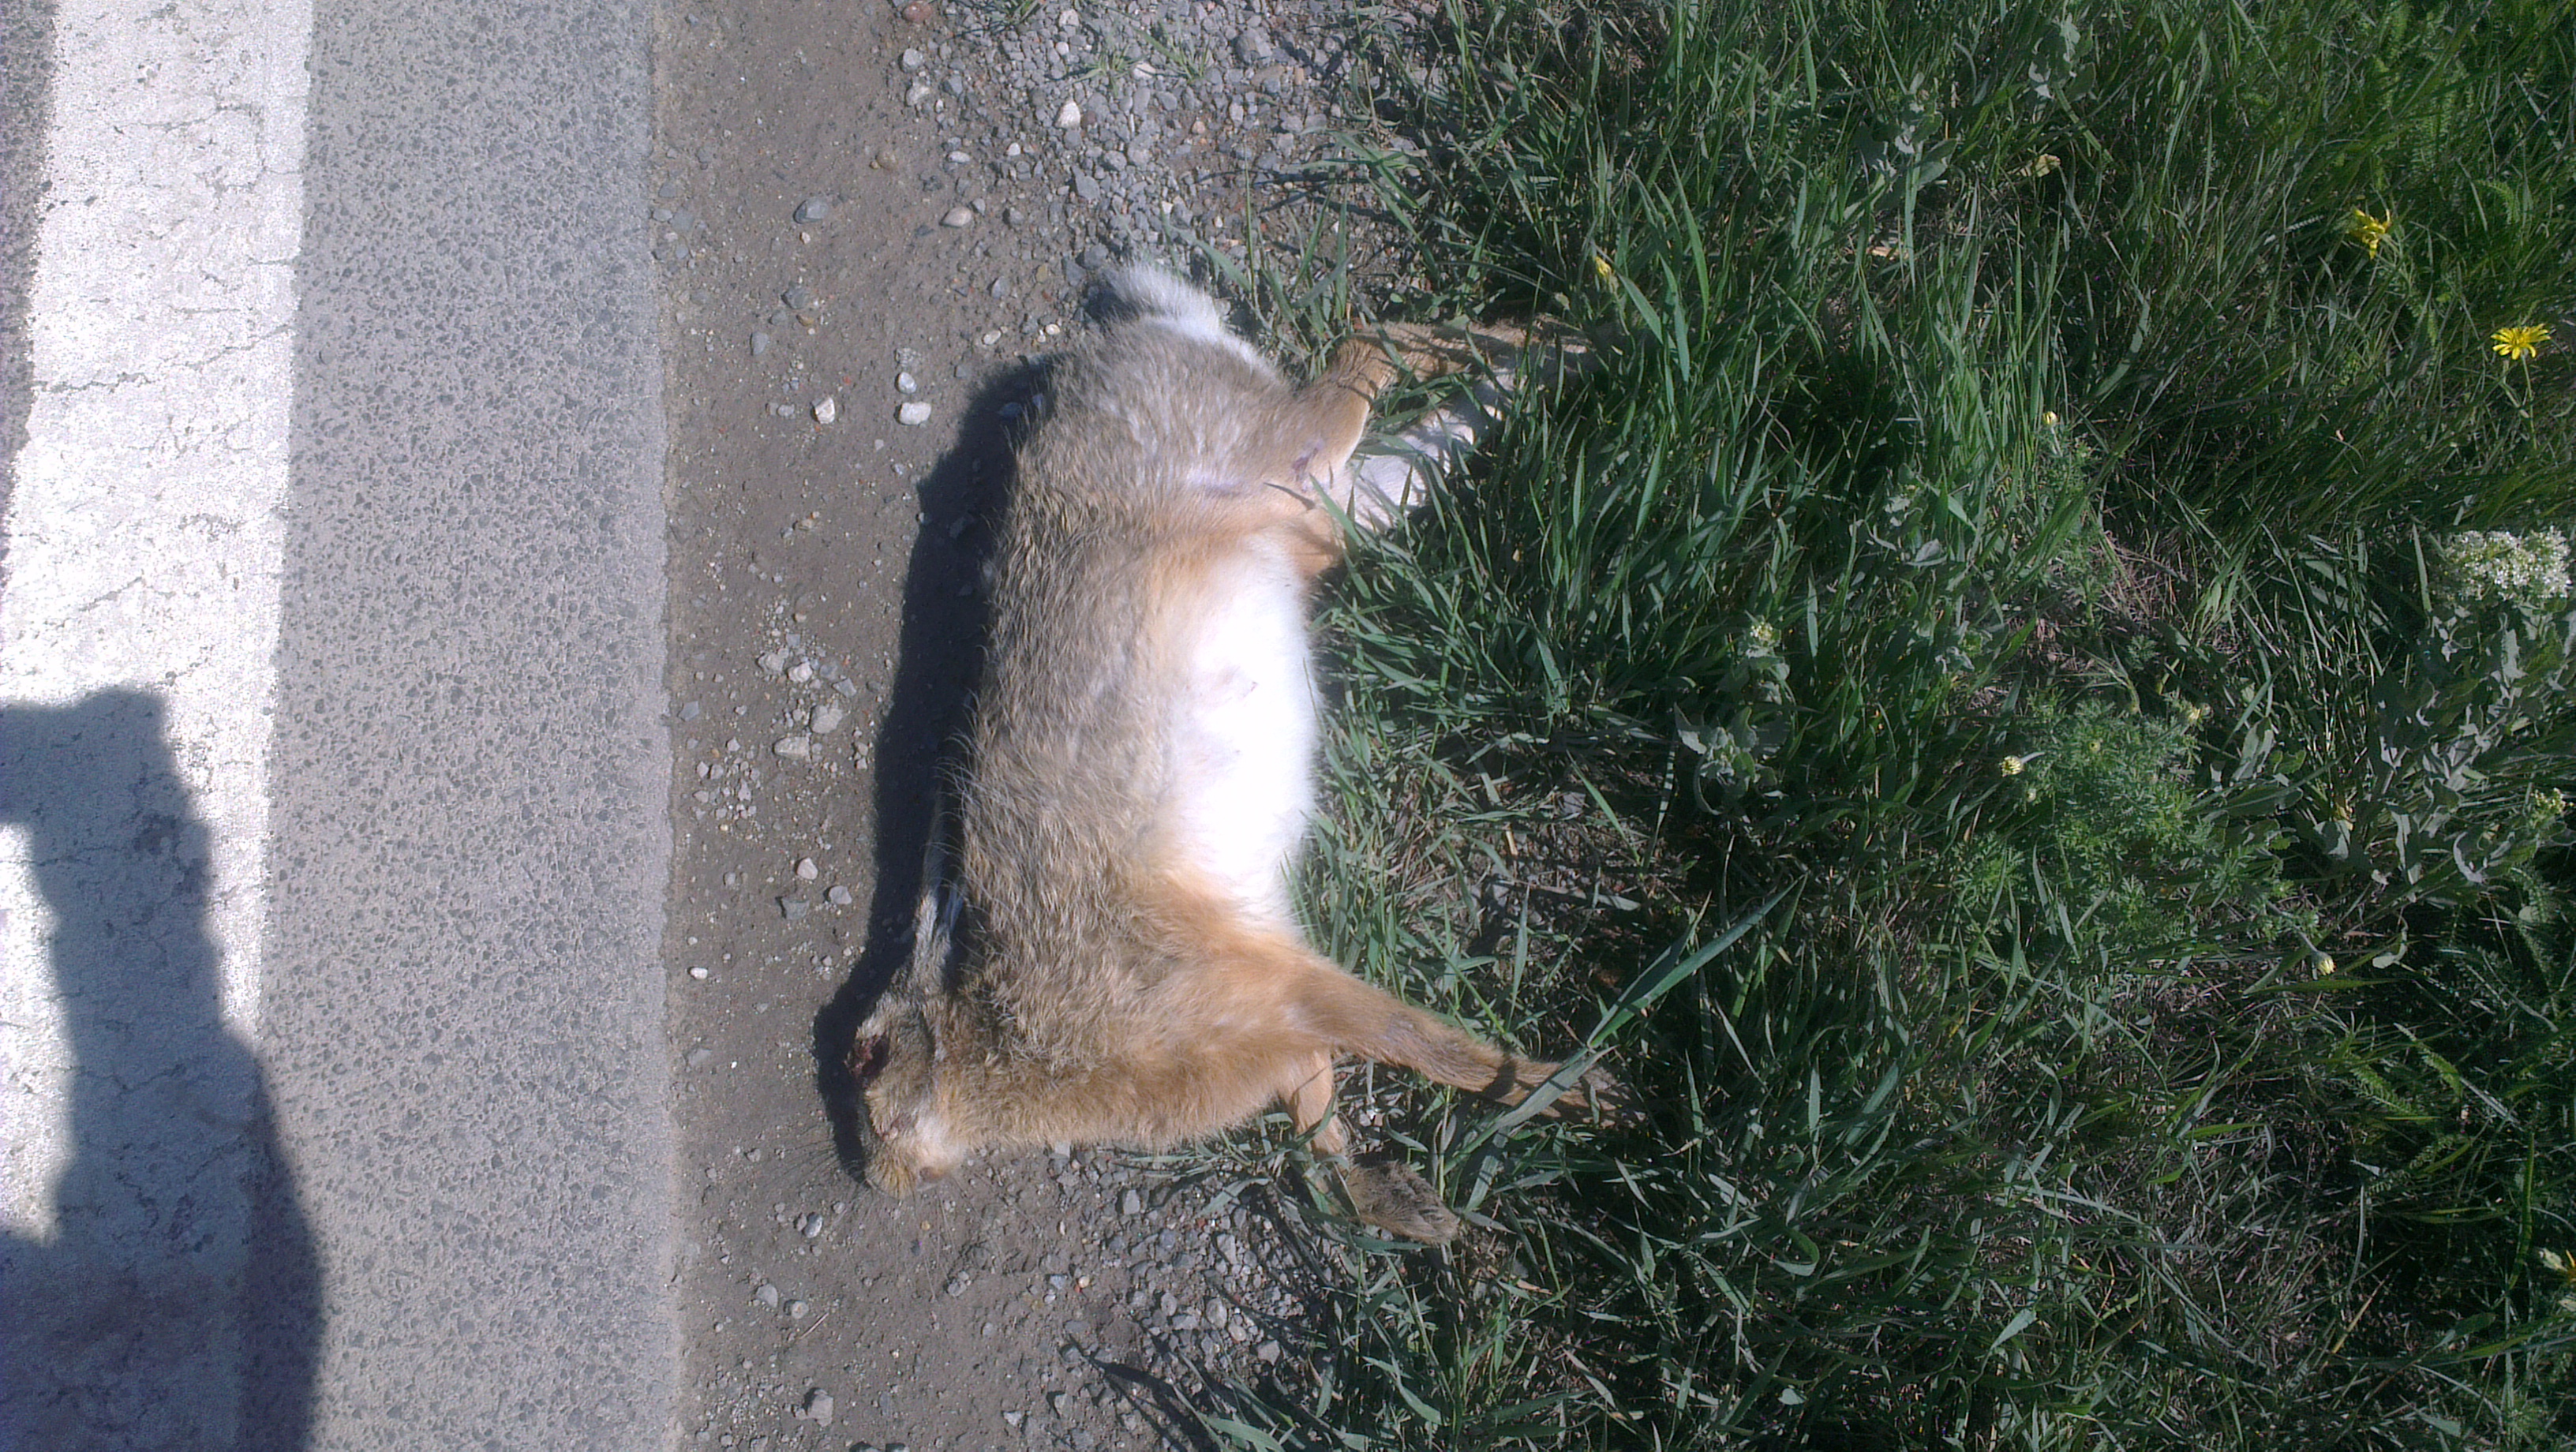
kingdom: Animalia
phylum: Chordata
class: Mammalia
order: Lagomorpha
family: Leporidae
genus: Lepus
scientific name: Lepus europaeus
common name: European hare
